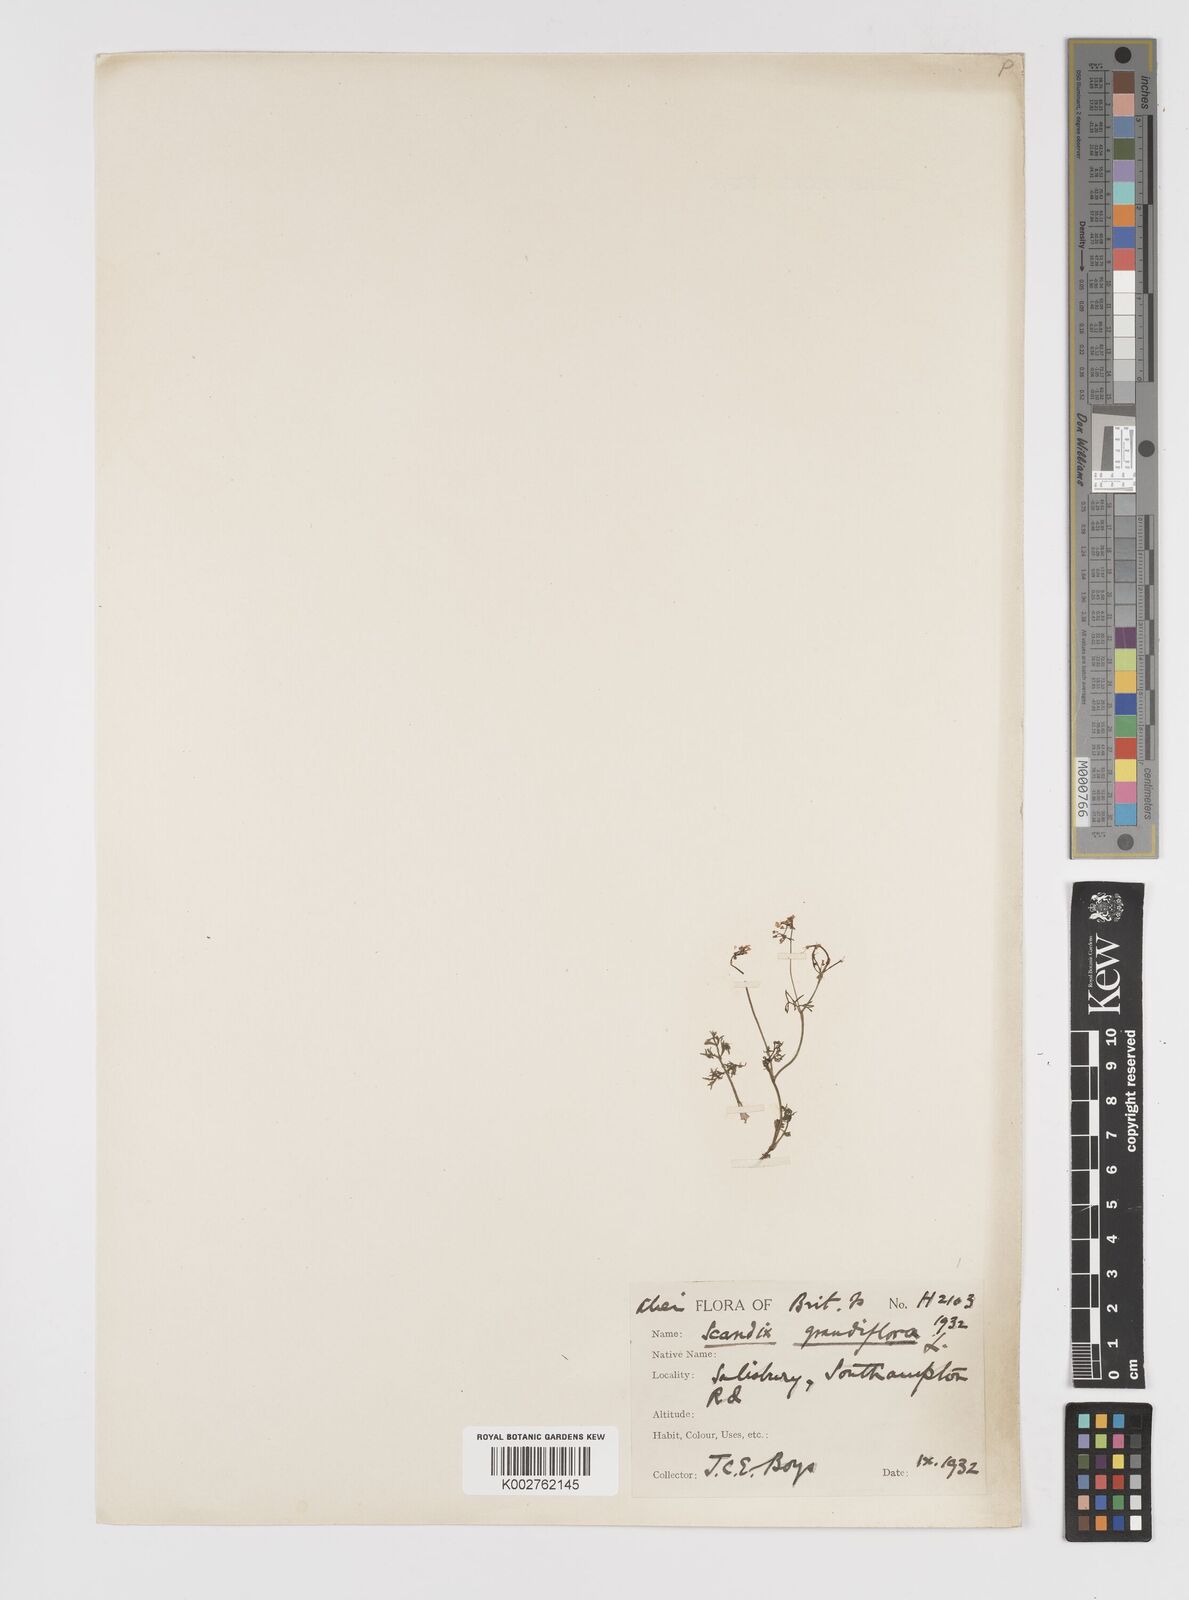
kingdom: Plantae
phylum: Tracheophyta
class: Magnoliopsida
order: Apiales
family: Apiaceae
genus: Scandix
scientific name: Scandix australis
